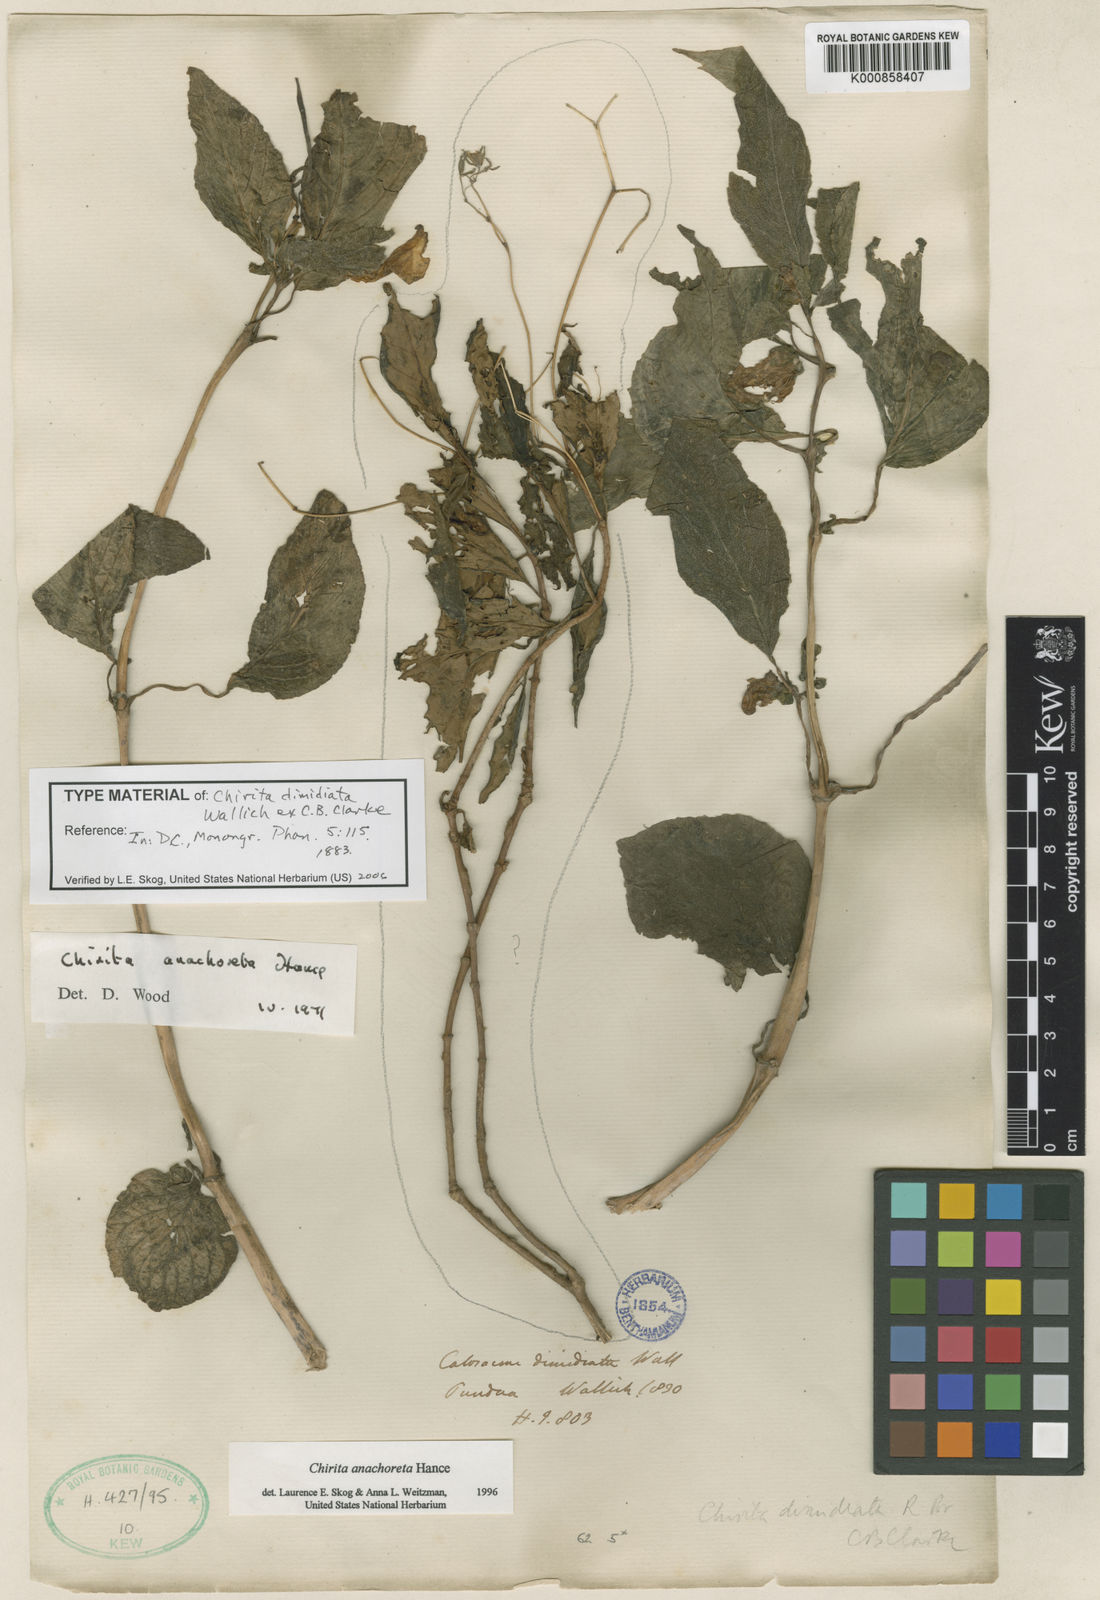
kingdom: Plantae
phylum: Tracheophyta
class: Magnoliopsida
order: Lamiales
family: Gesneriaceae
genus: Henckelia
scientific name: Henckelia anachoreta
